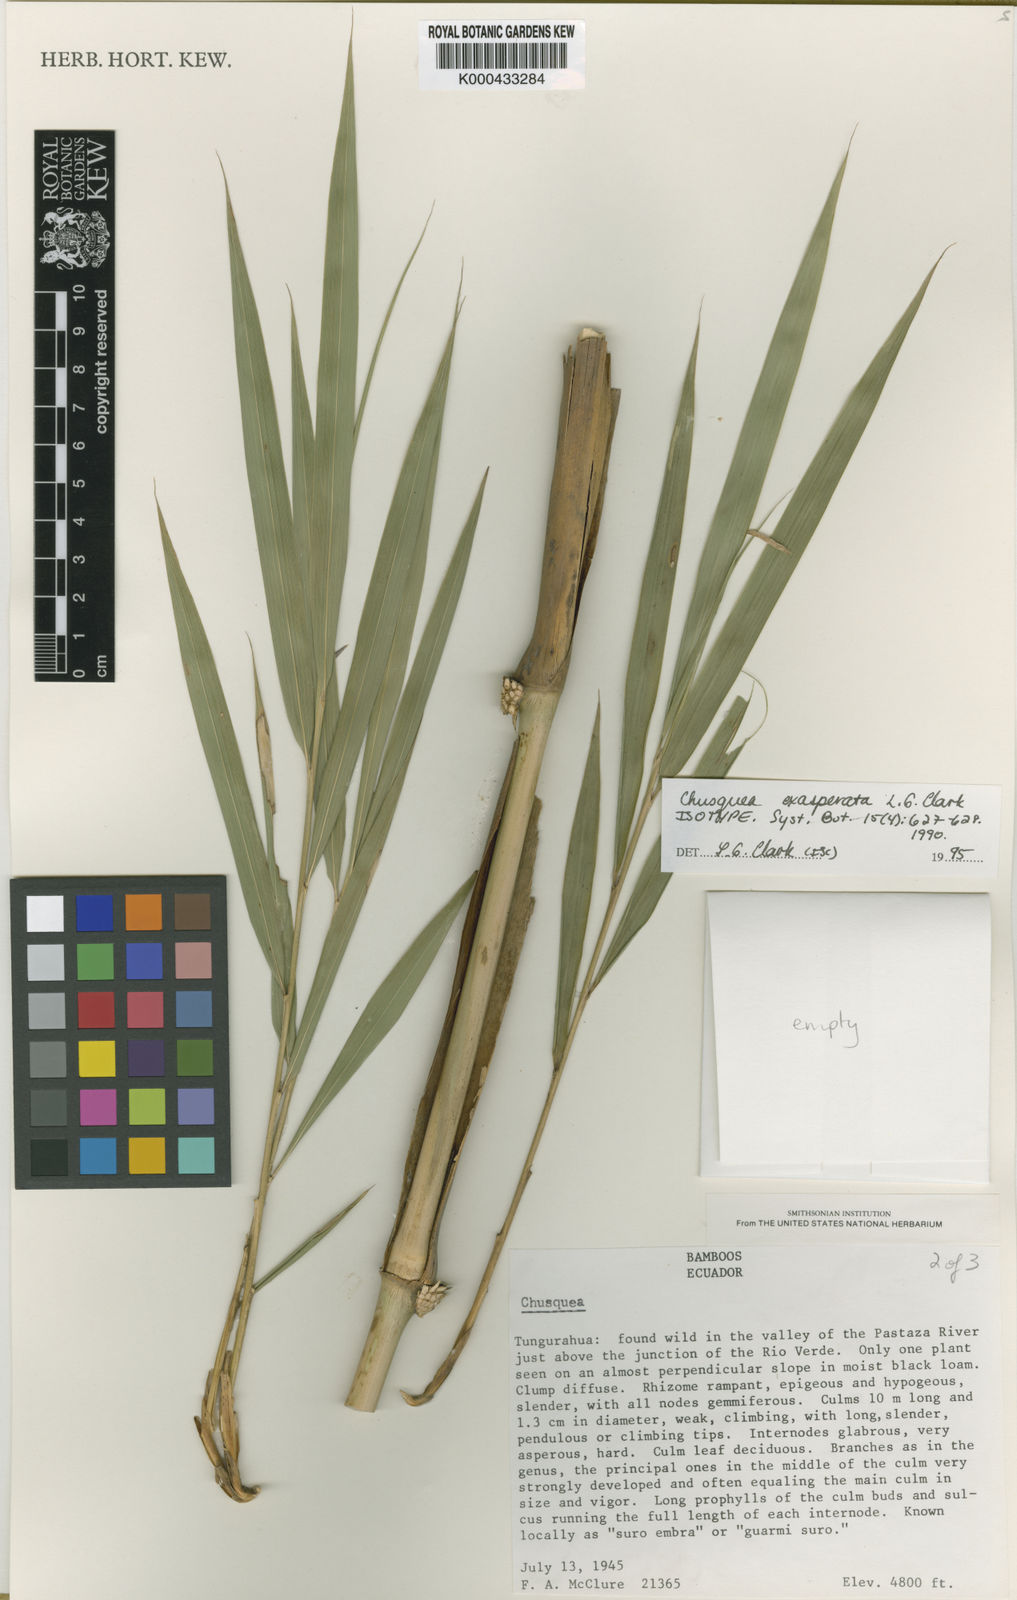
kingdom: Plantae
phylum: Tracheophyta
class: Liliopsida
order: Poales
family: Poaceae
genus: Chusquea
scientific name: Chusquea exasperata
